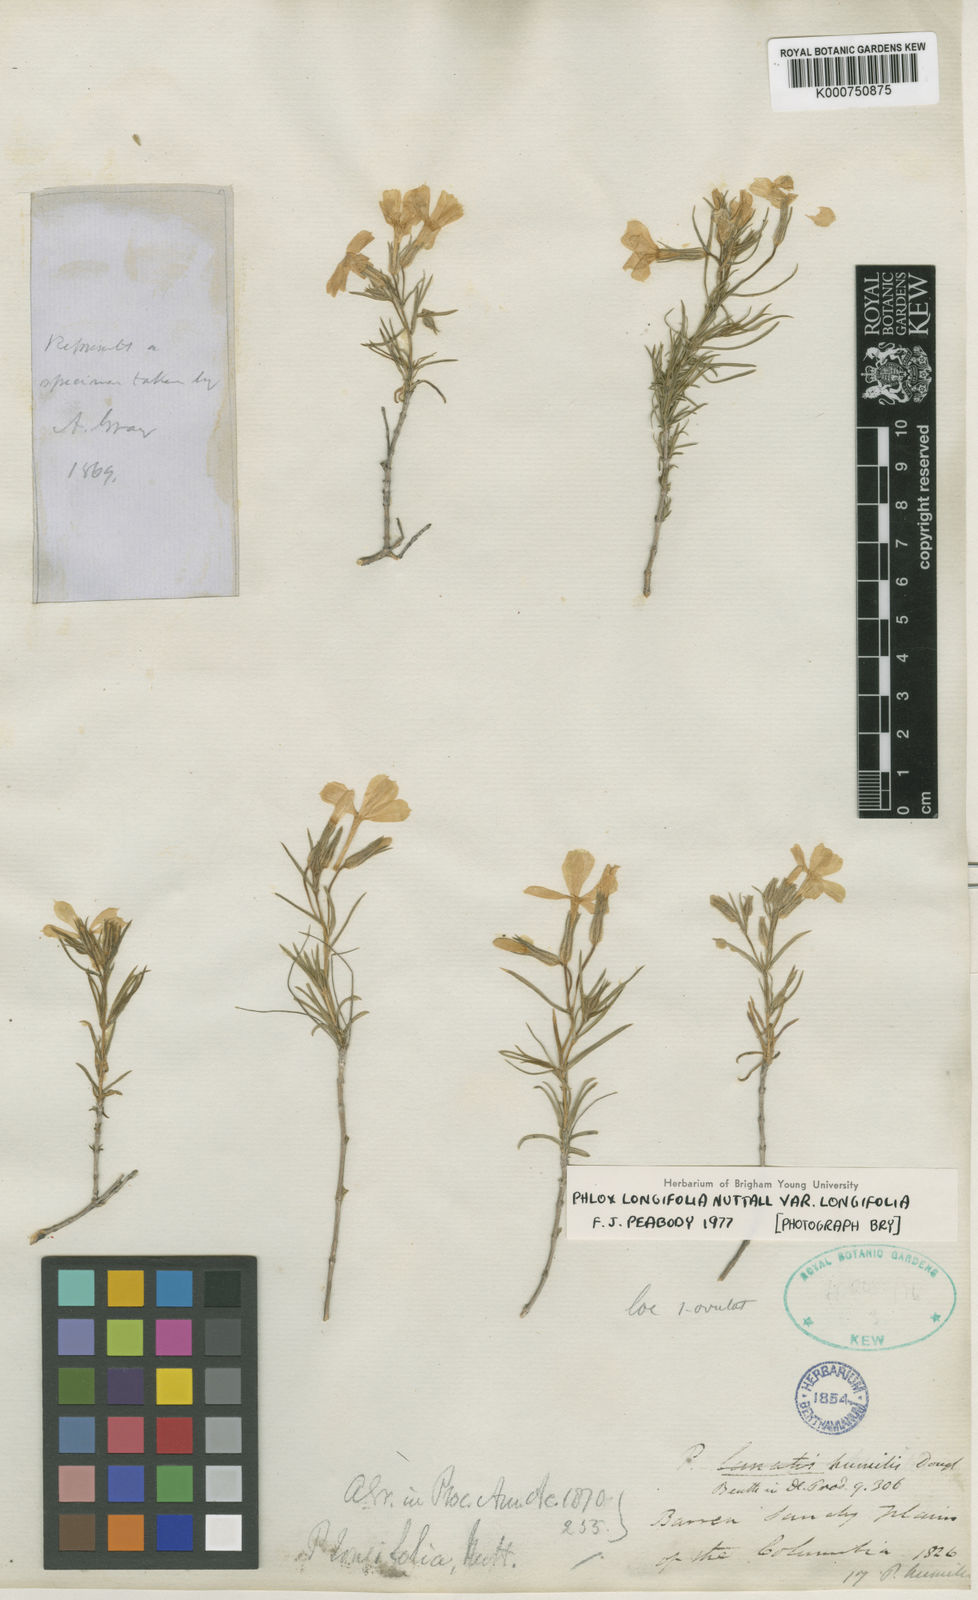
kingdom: Plantae
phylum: Tracheophyta
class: Magnoliopsida
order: Ericales
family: Polemoniaceae
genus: Phlox
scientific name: Phlox longifolia
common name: Longleaf phlox
